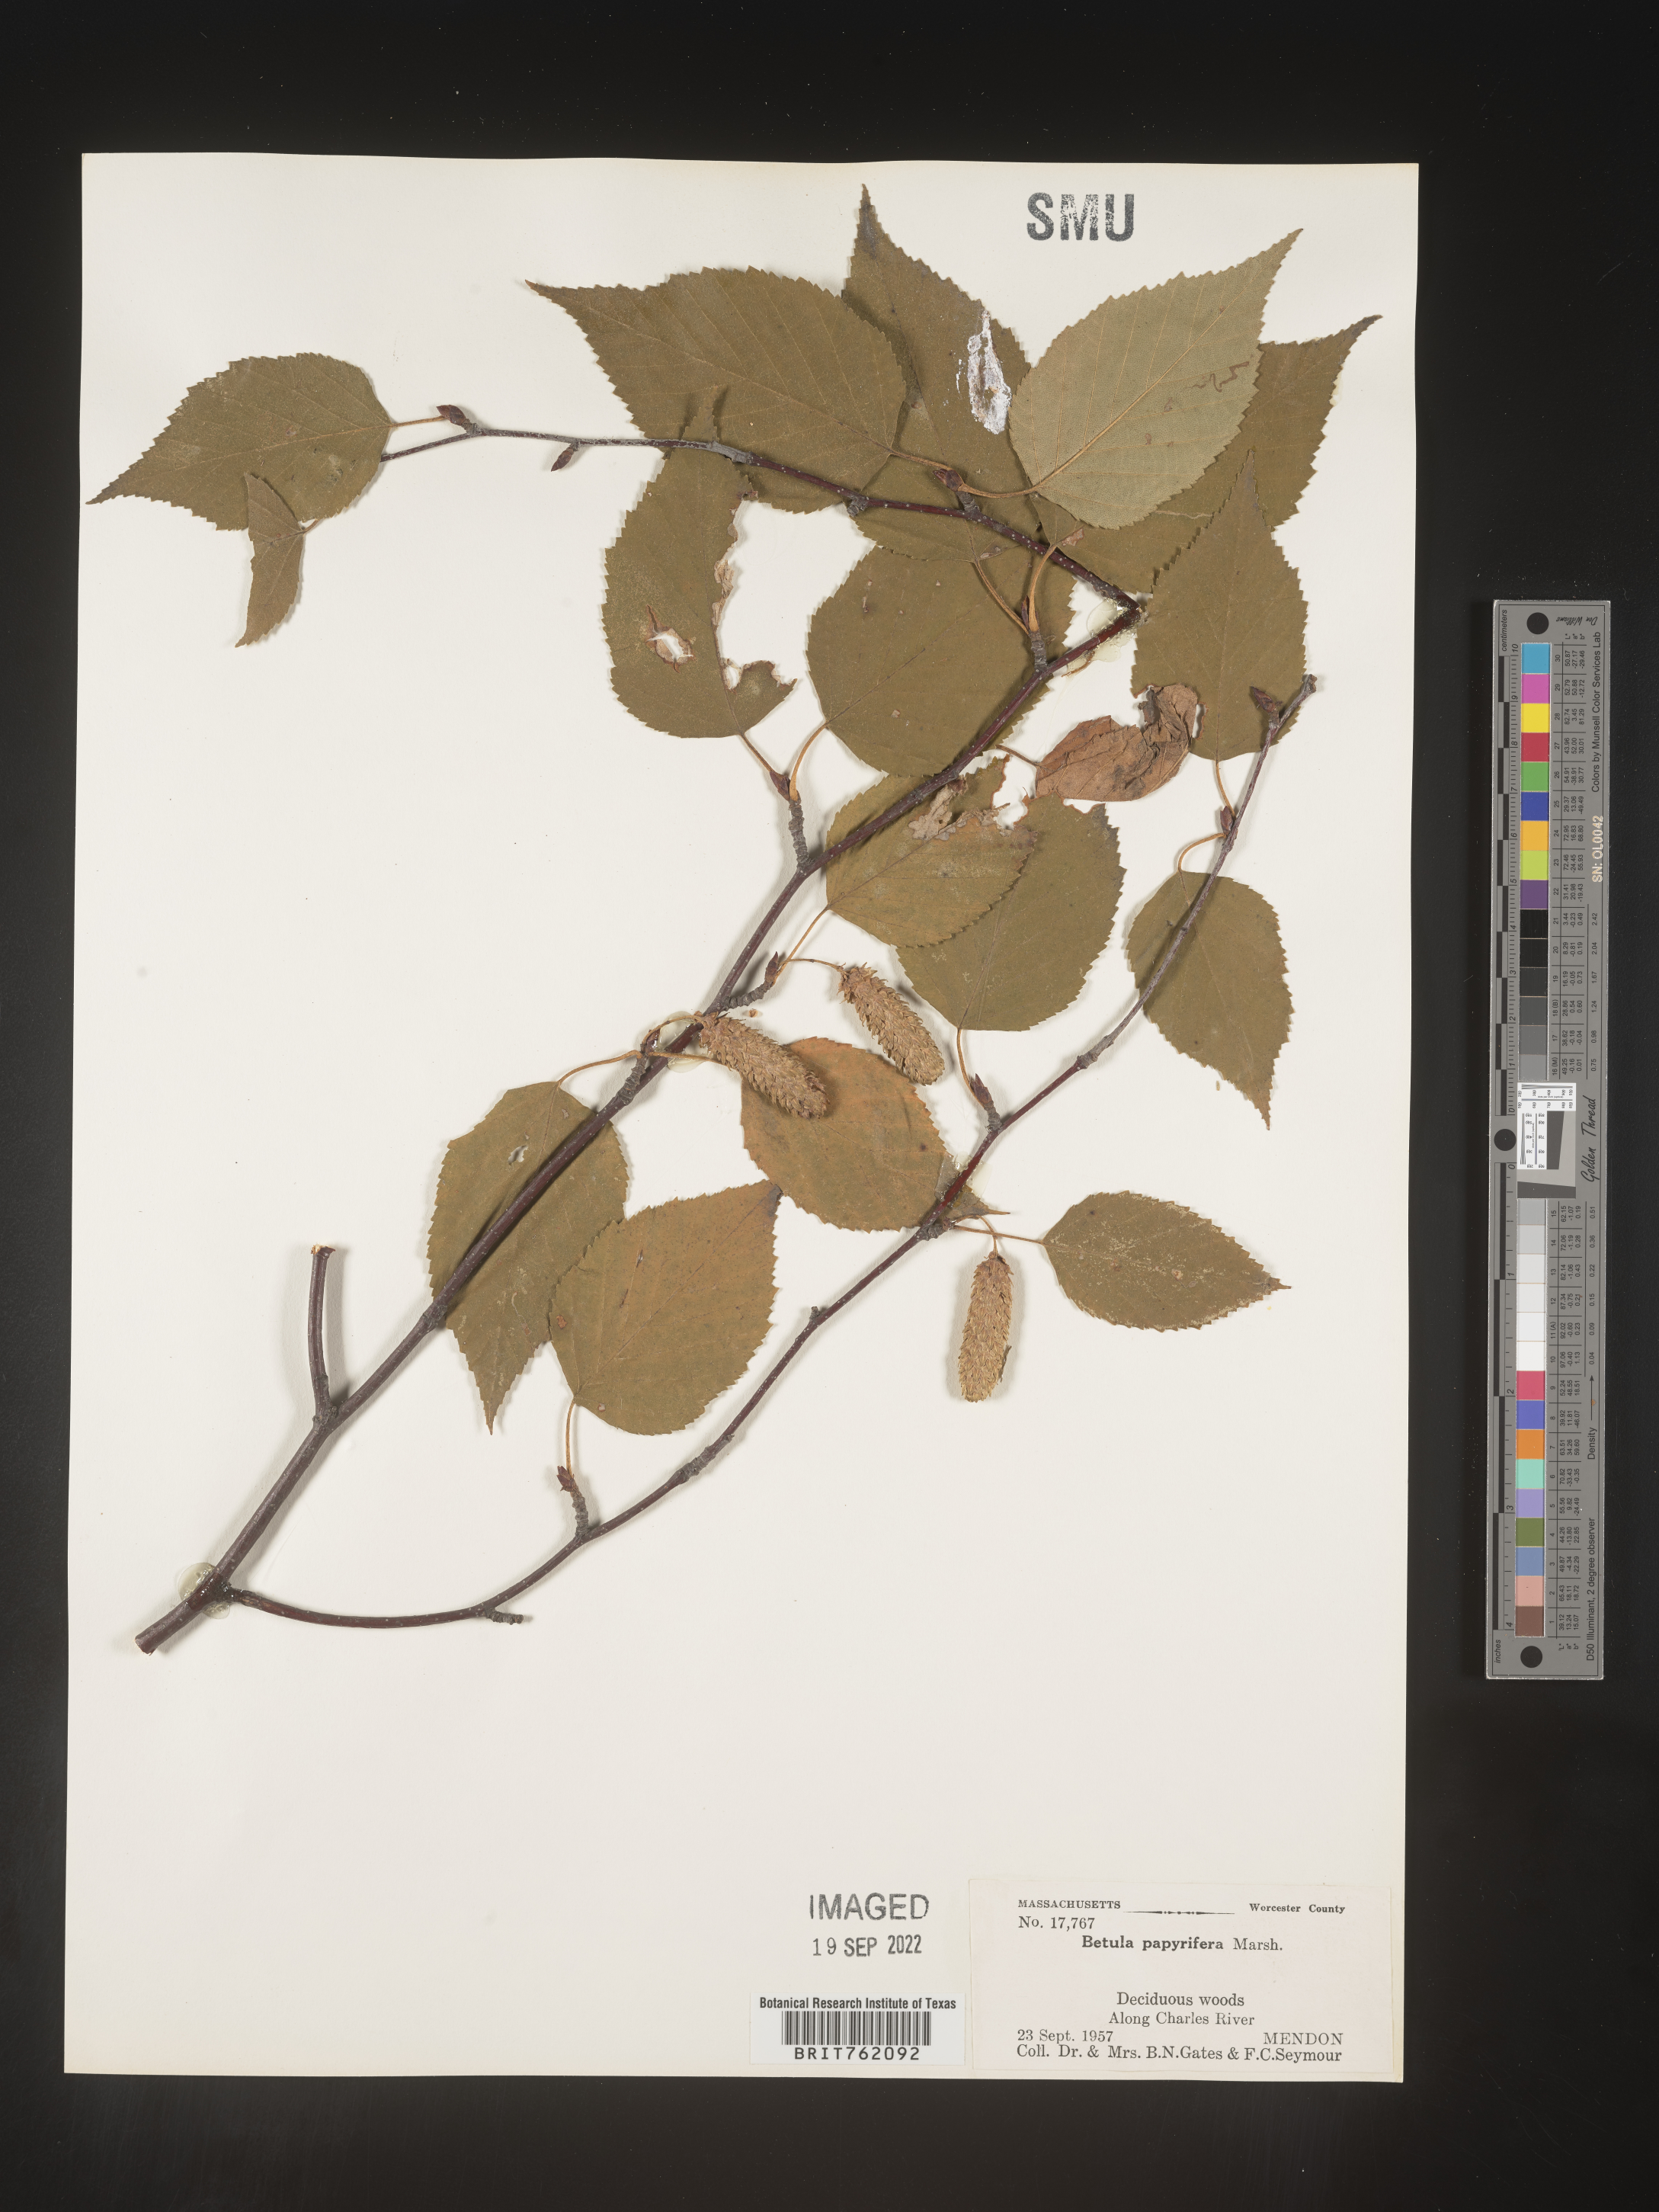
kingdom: Plantae
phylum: Tracheophyta
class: Magnoliopsida
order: Fagales
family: Betulaceae
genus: Betula
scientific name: Betula papyrifera
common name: Paper birch
